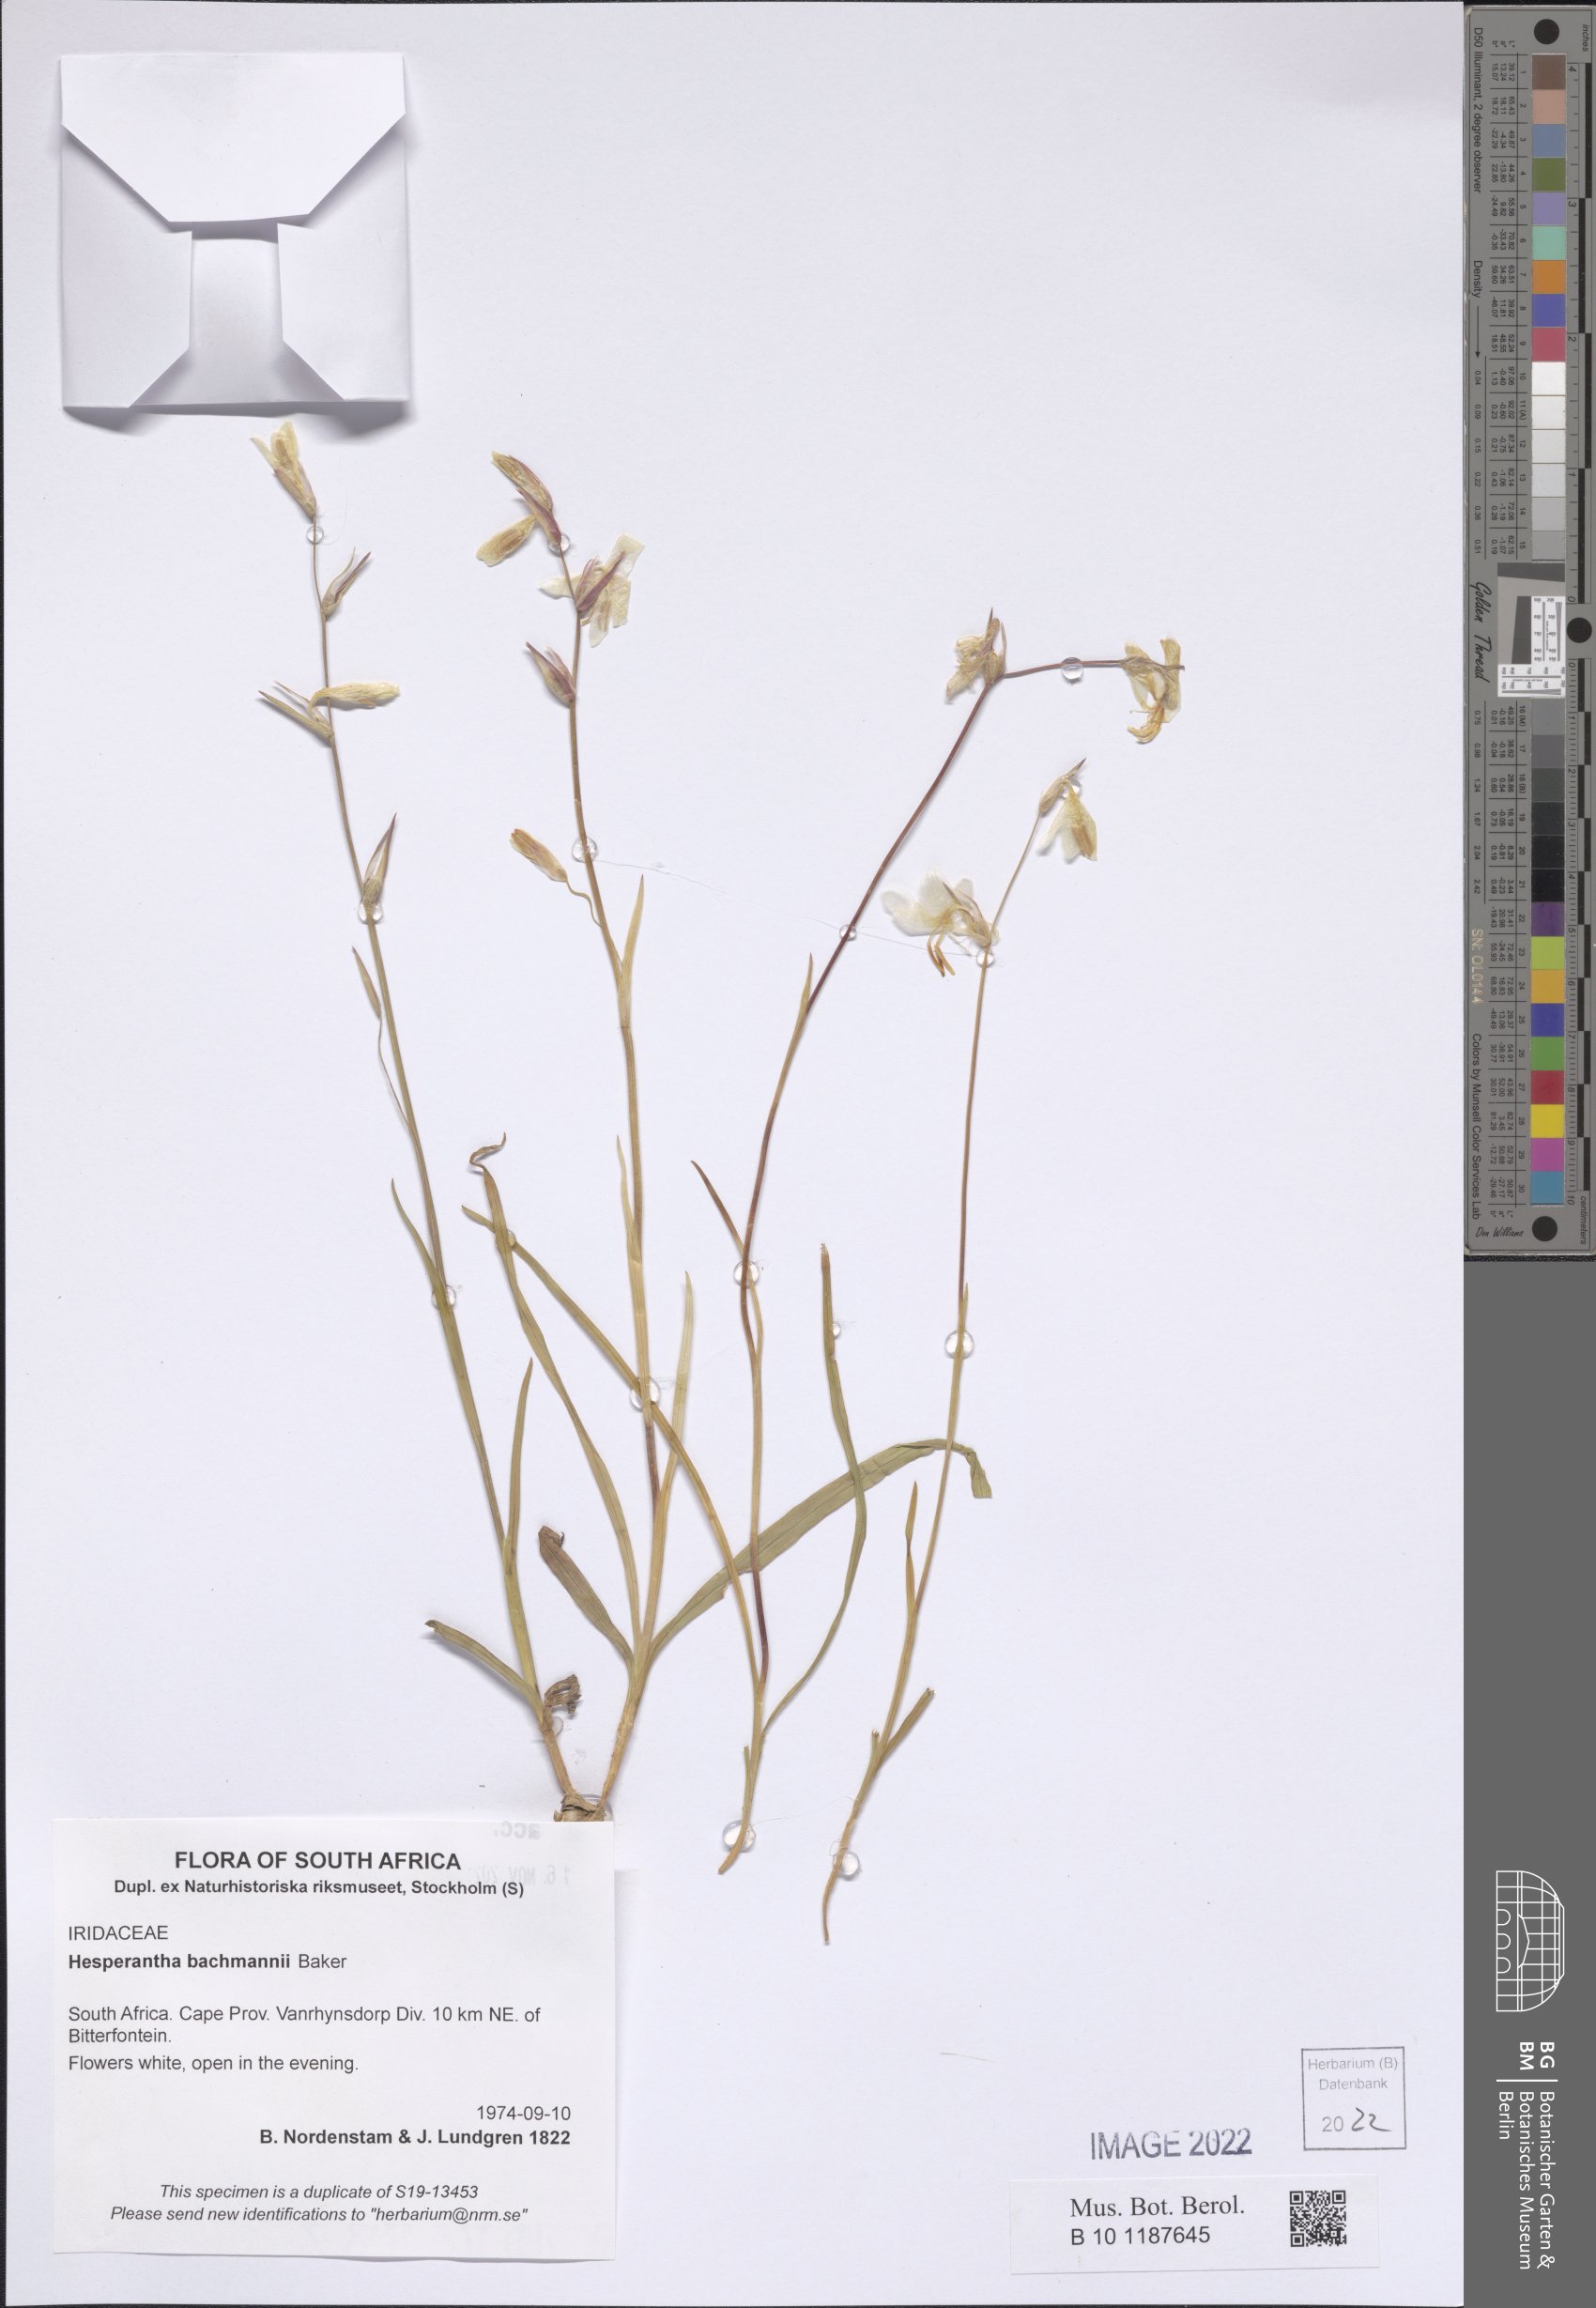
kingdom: Plantae
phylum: Tracheophyta
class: Liliopsida
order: Asparagales
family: Iridaceae
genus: Hesperantha
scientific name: Hesperantha bachmannii
